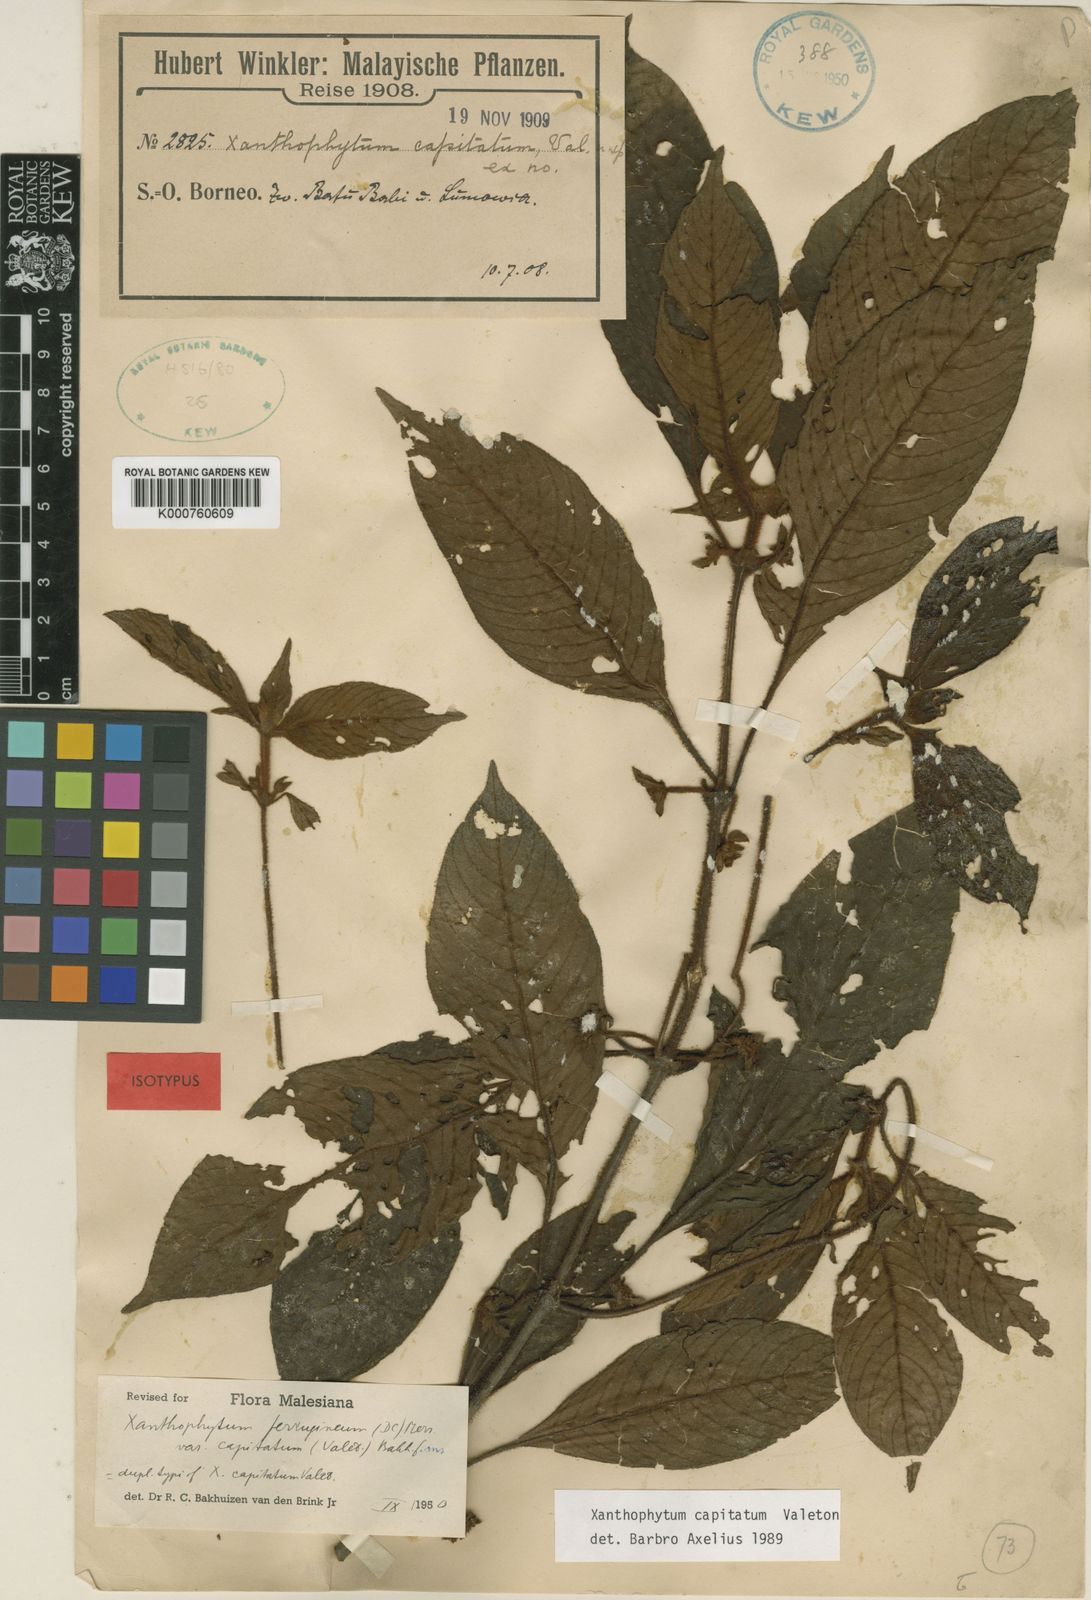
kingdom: Plantae
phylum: Tracheophyta
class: Magnoliopsida
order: Gentianales
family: Rubiaceae
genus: Xanthophytum
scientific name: Xanthophytum capitatum
